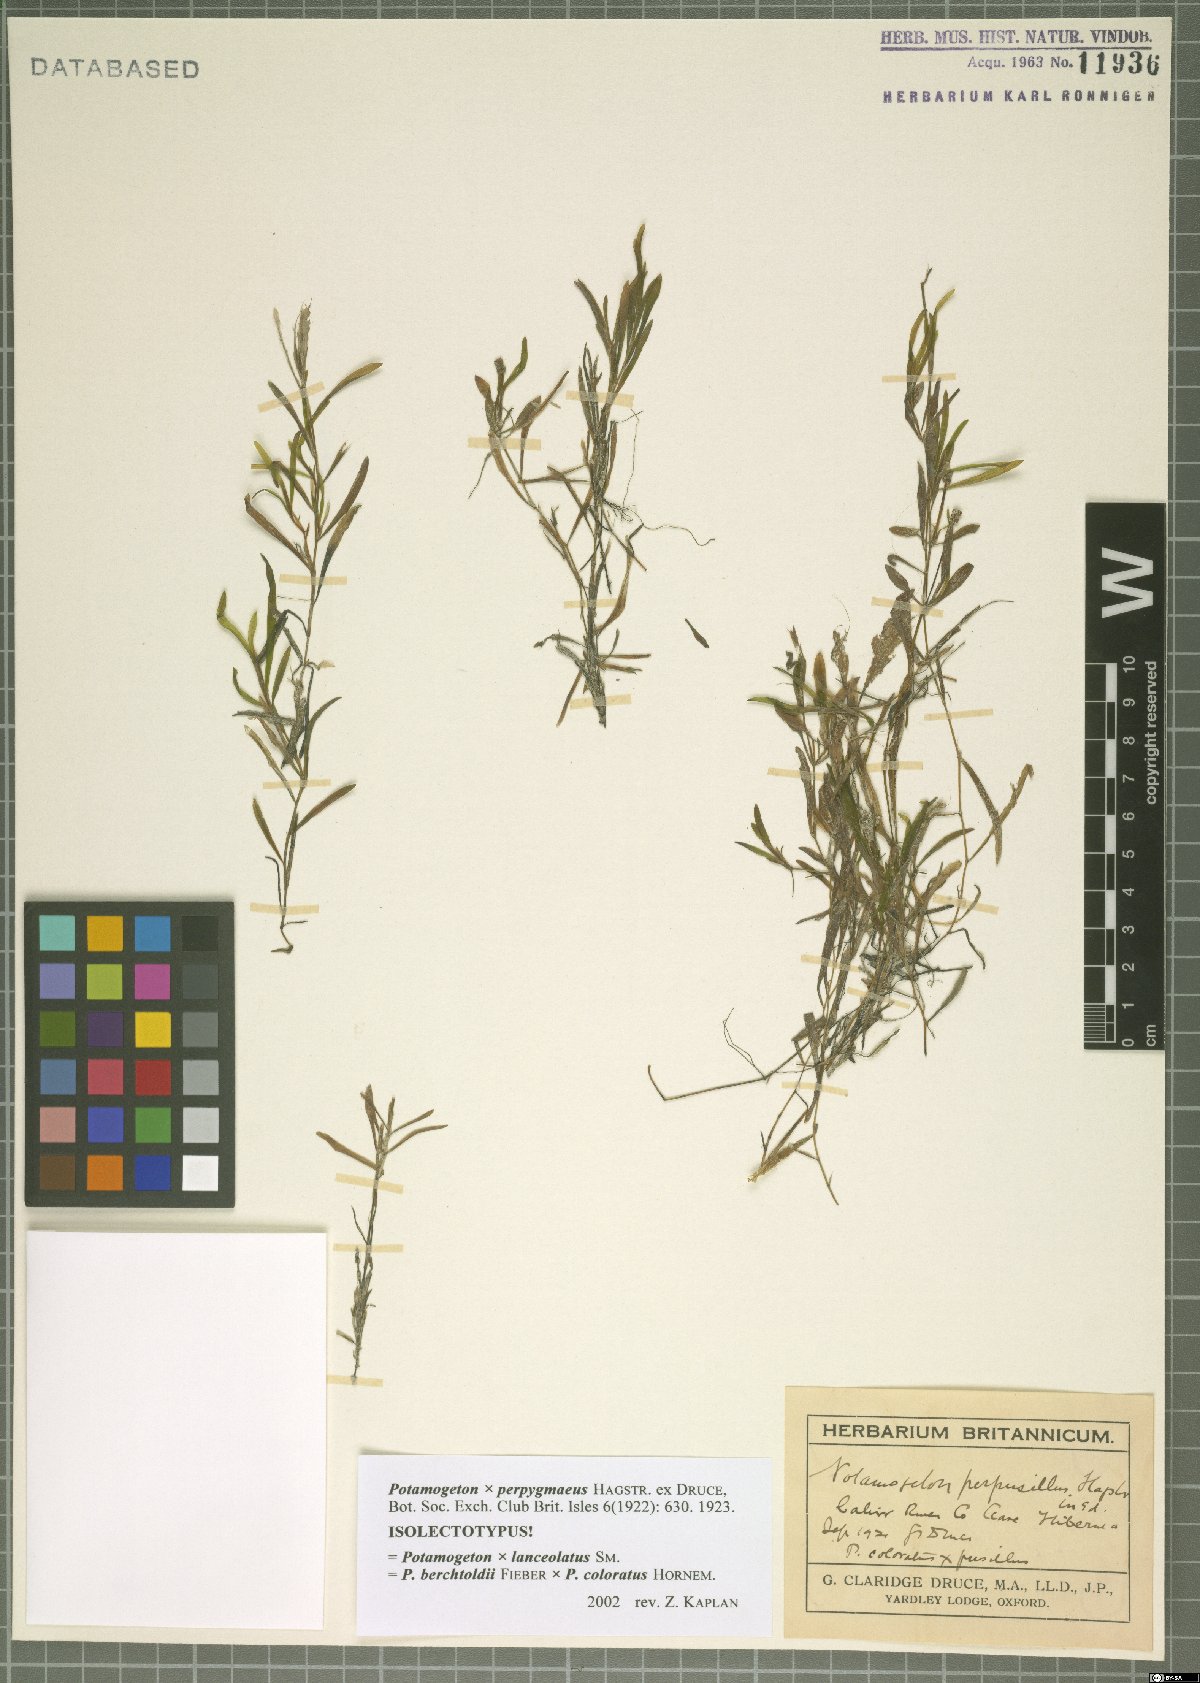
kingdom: Plantae
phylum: Tracheophyta
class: Liliopsida
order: Alismatales
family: Potamogetonaceae
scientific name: Potamogetonaceae
